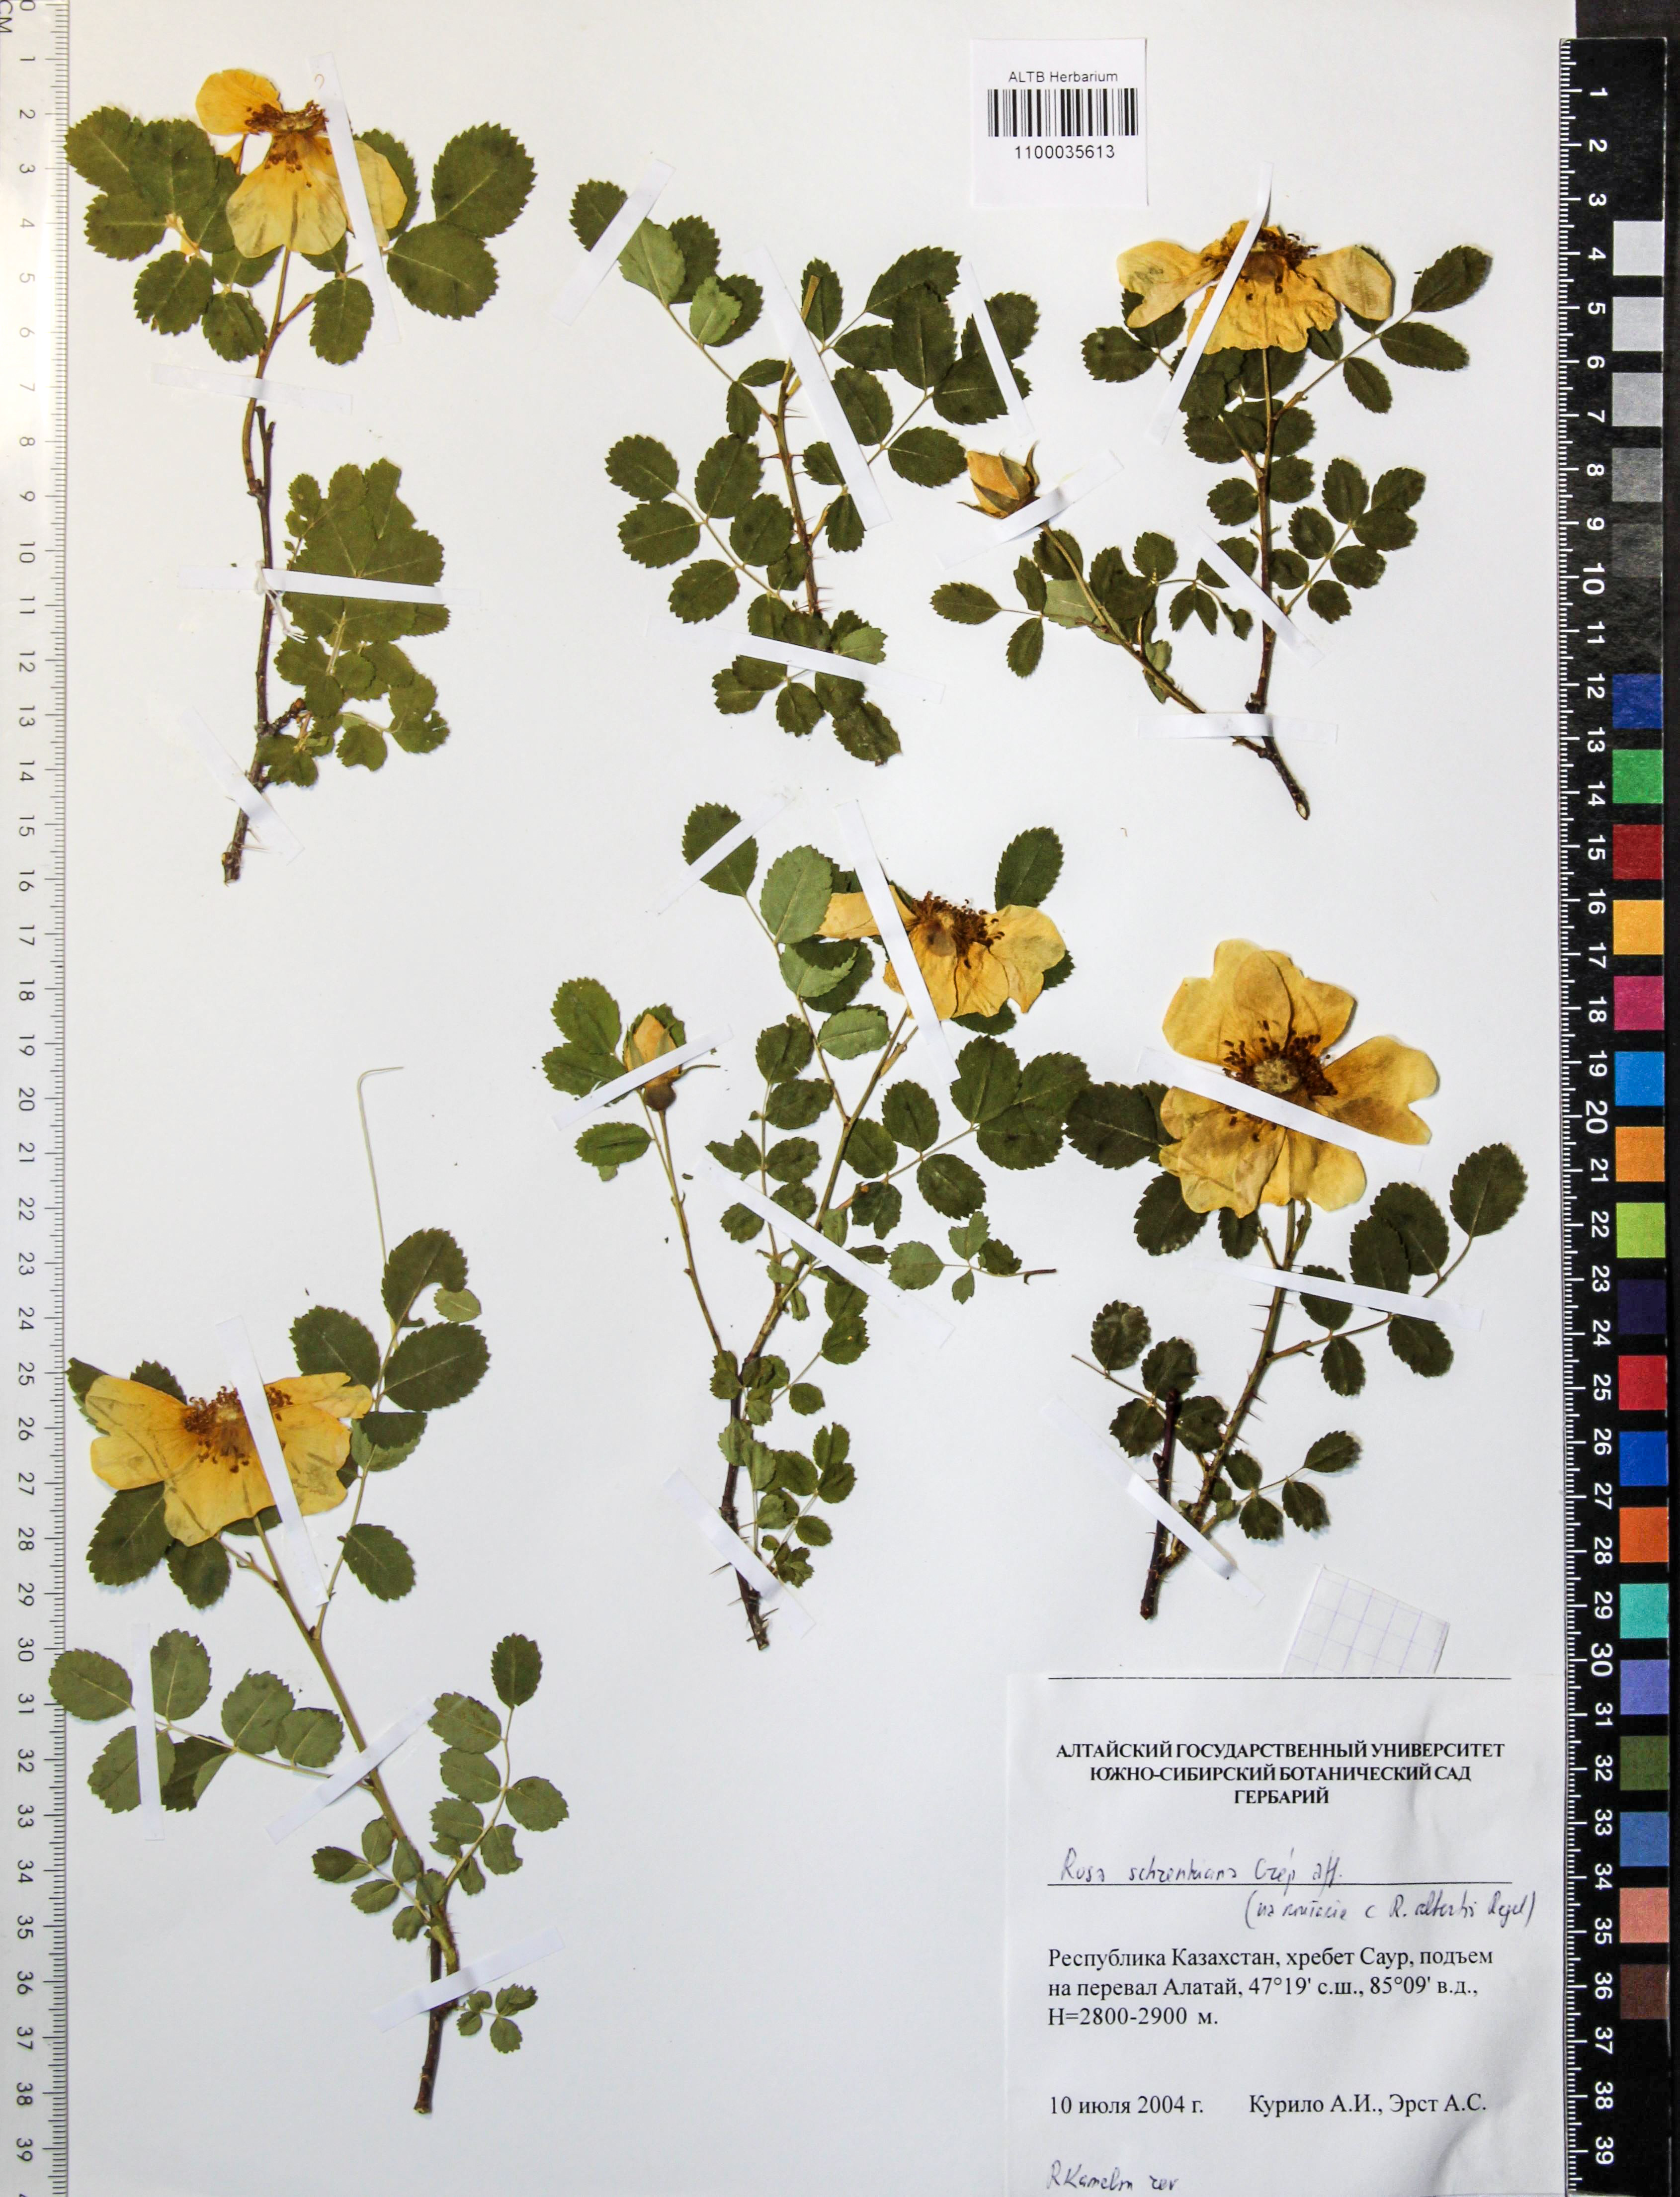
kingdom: Plantae
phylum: Tracheophyta
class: Magnoliopsida
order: Rosales
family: Rosaceae
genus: Rosa
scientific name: Rosa schrenkiana
